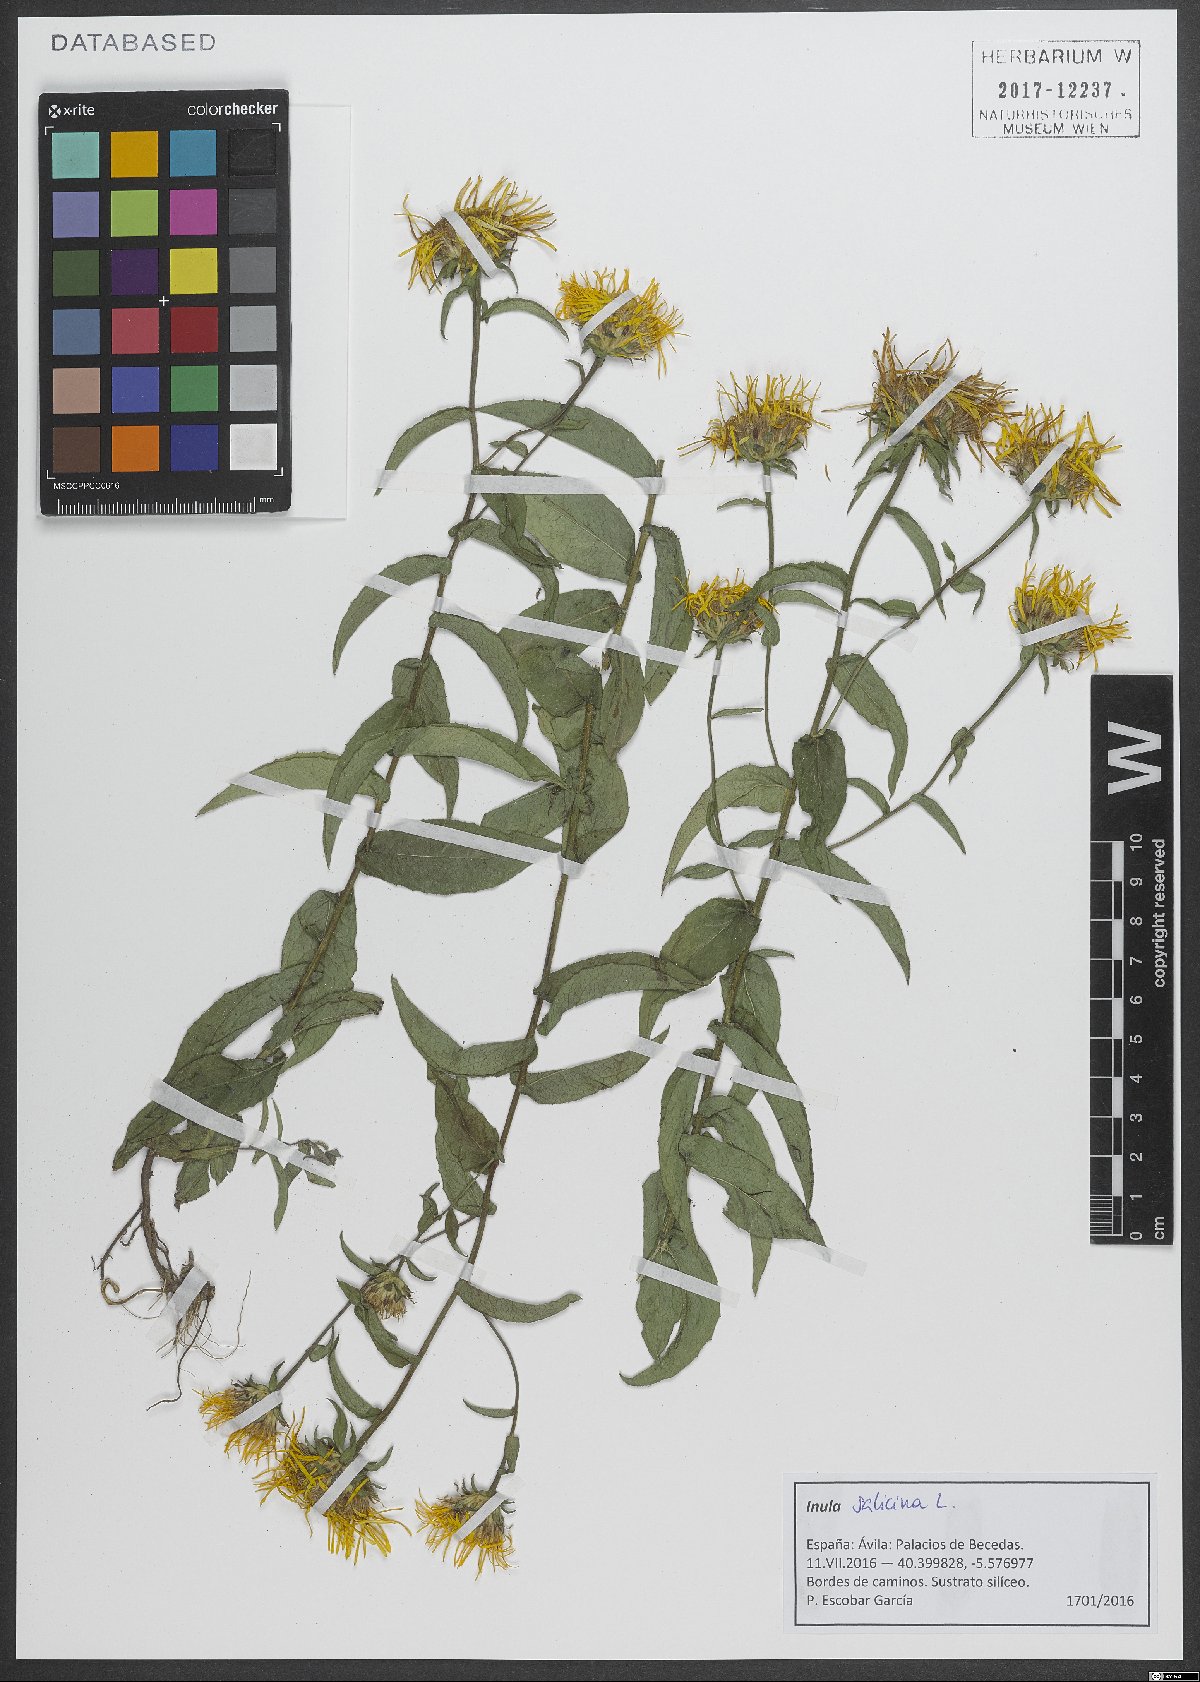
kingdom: Plantae
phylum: Tracheophyta
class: Magnoliopsida
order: Asterales
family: Asteraceae
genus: Pentanema
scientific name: Pentanema salicinum
